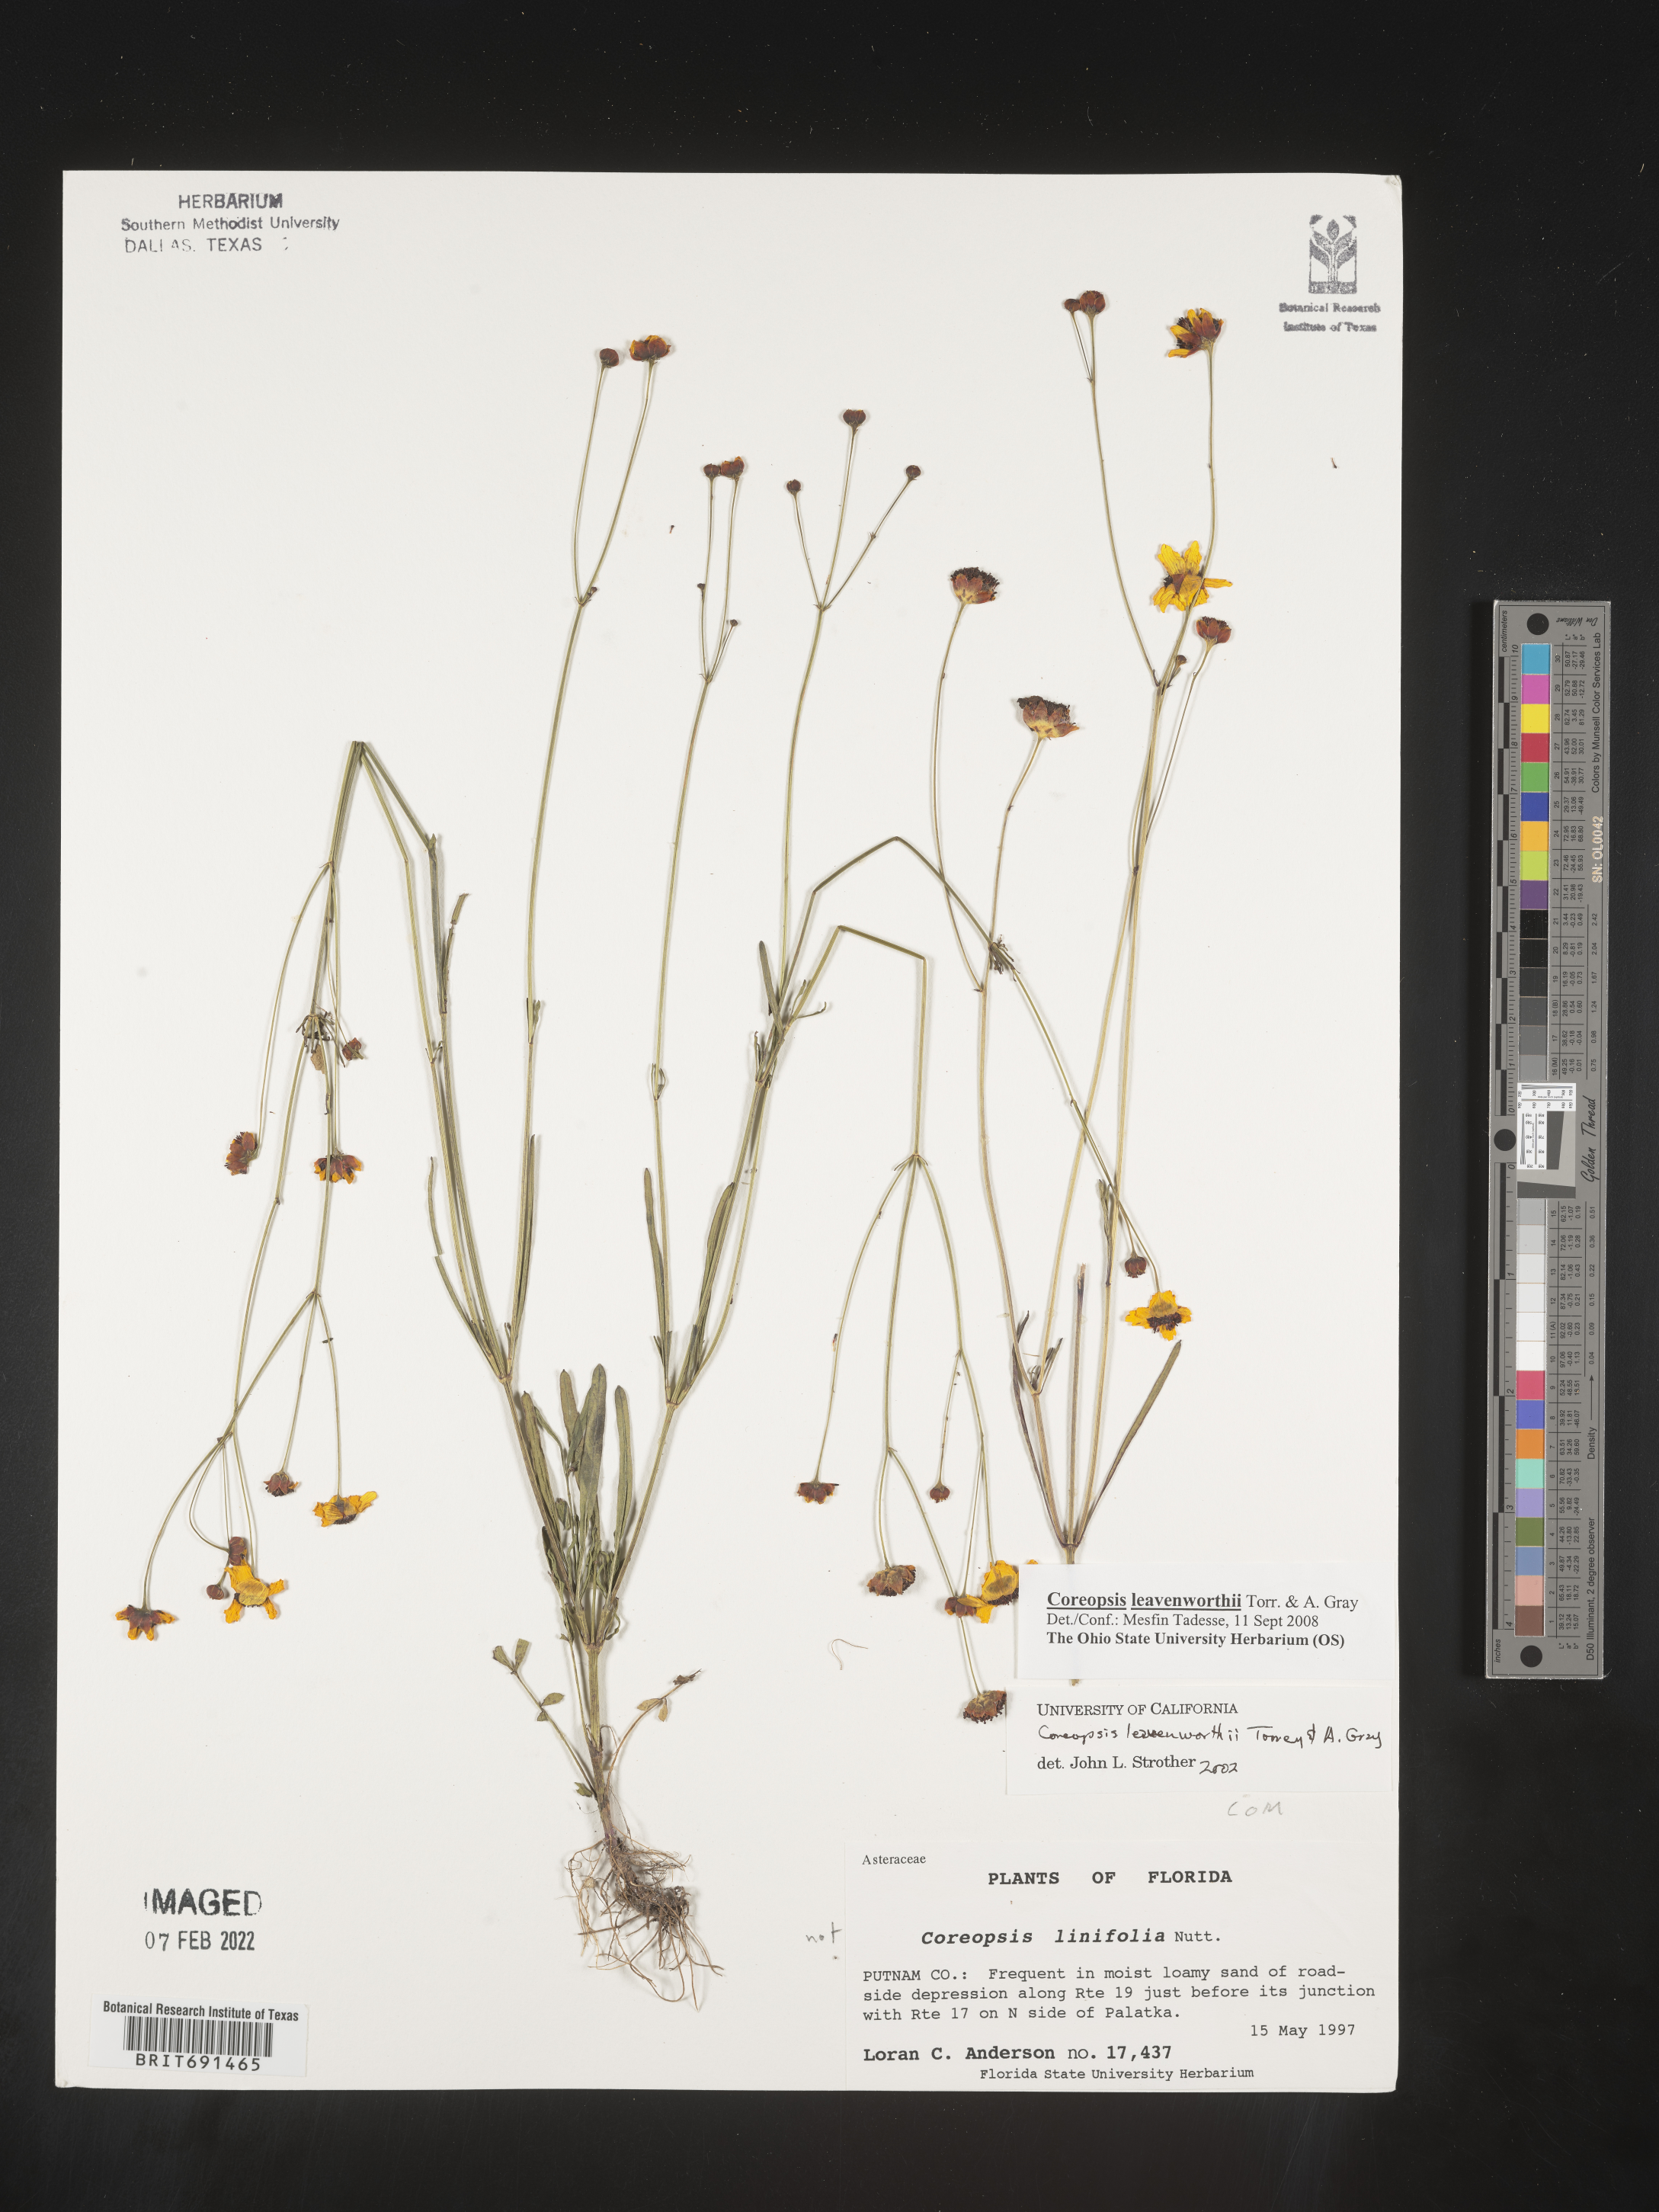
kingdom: Plantae
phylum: Tracheophyta
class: Magnoliopsida
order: Asterales
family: Asteraceae
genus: Coreopsis
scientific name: Coreopsis leavenworthii
